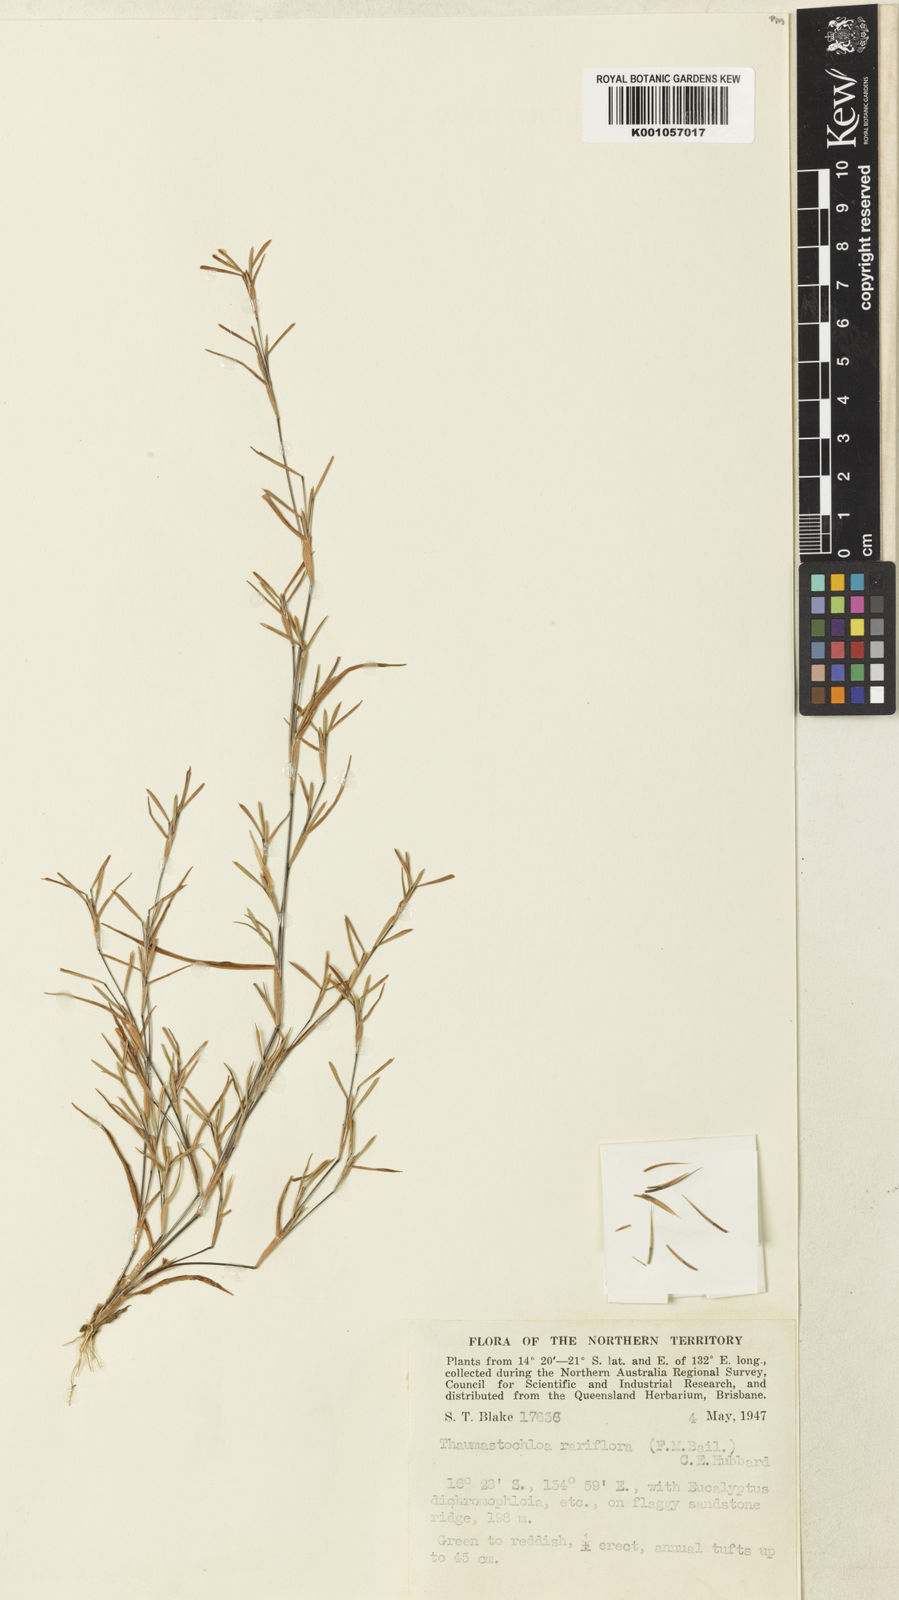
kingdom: Plantae
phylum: Tracheophyta
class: Liliopsida
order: Poales
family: Poaceae
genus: Thaumastochloa
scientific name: Thaumastochloa rubra
